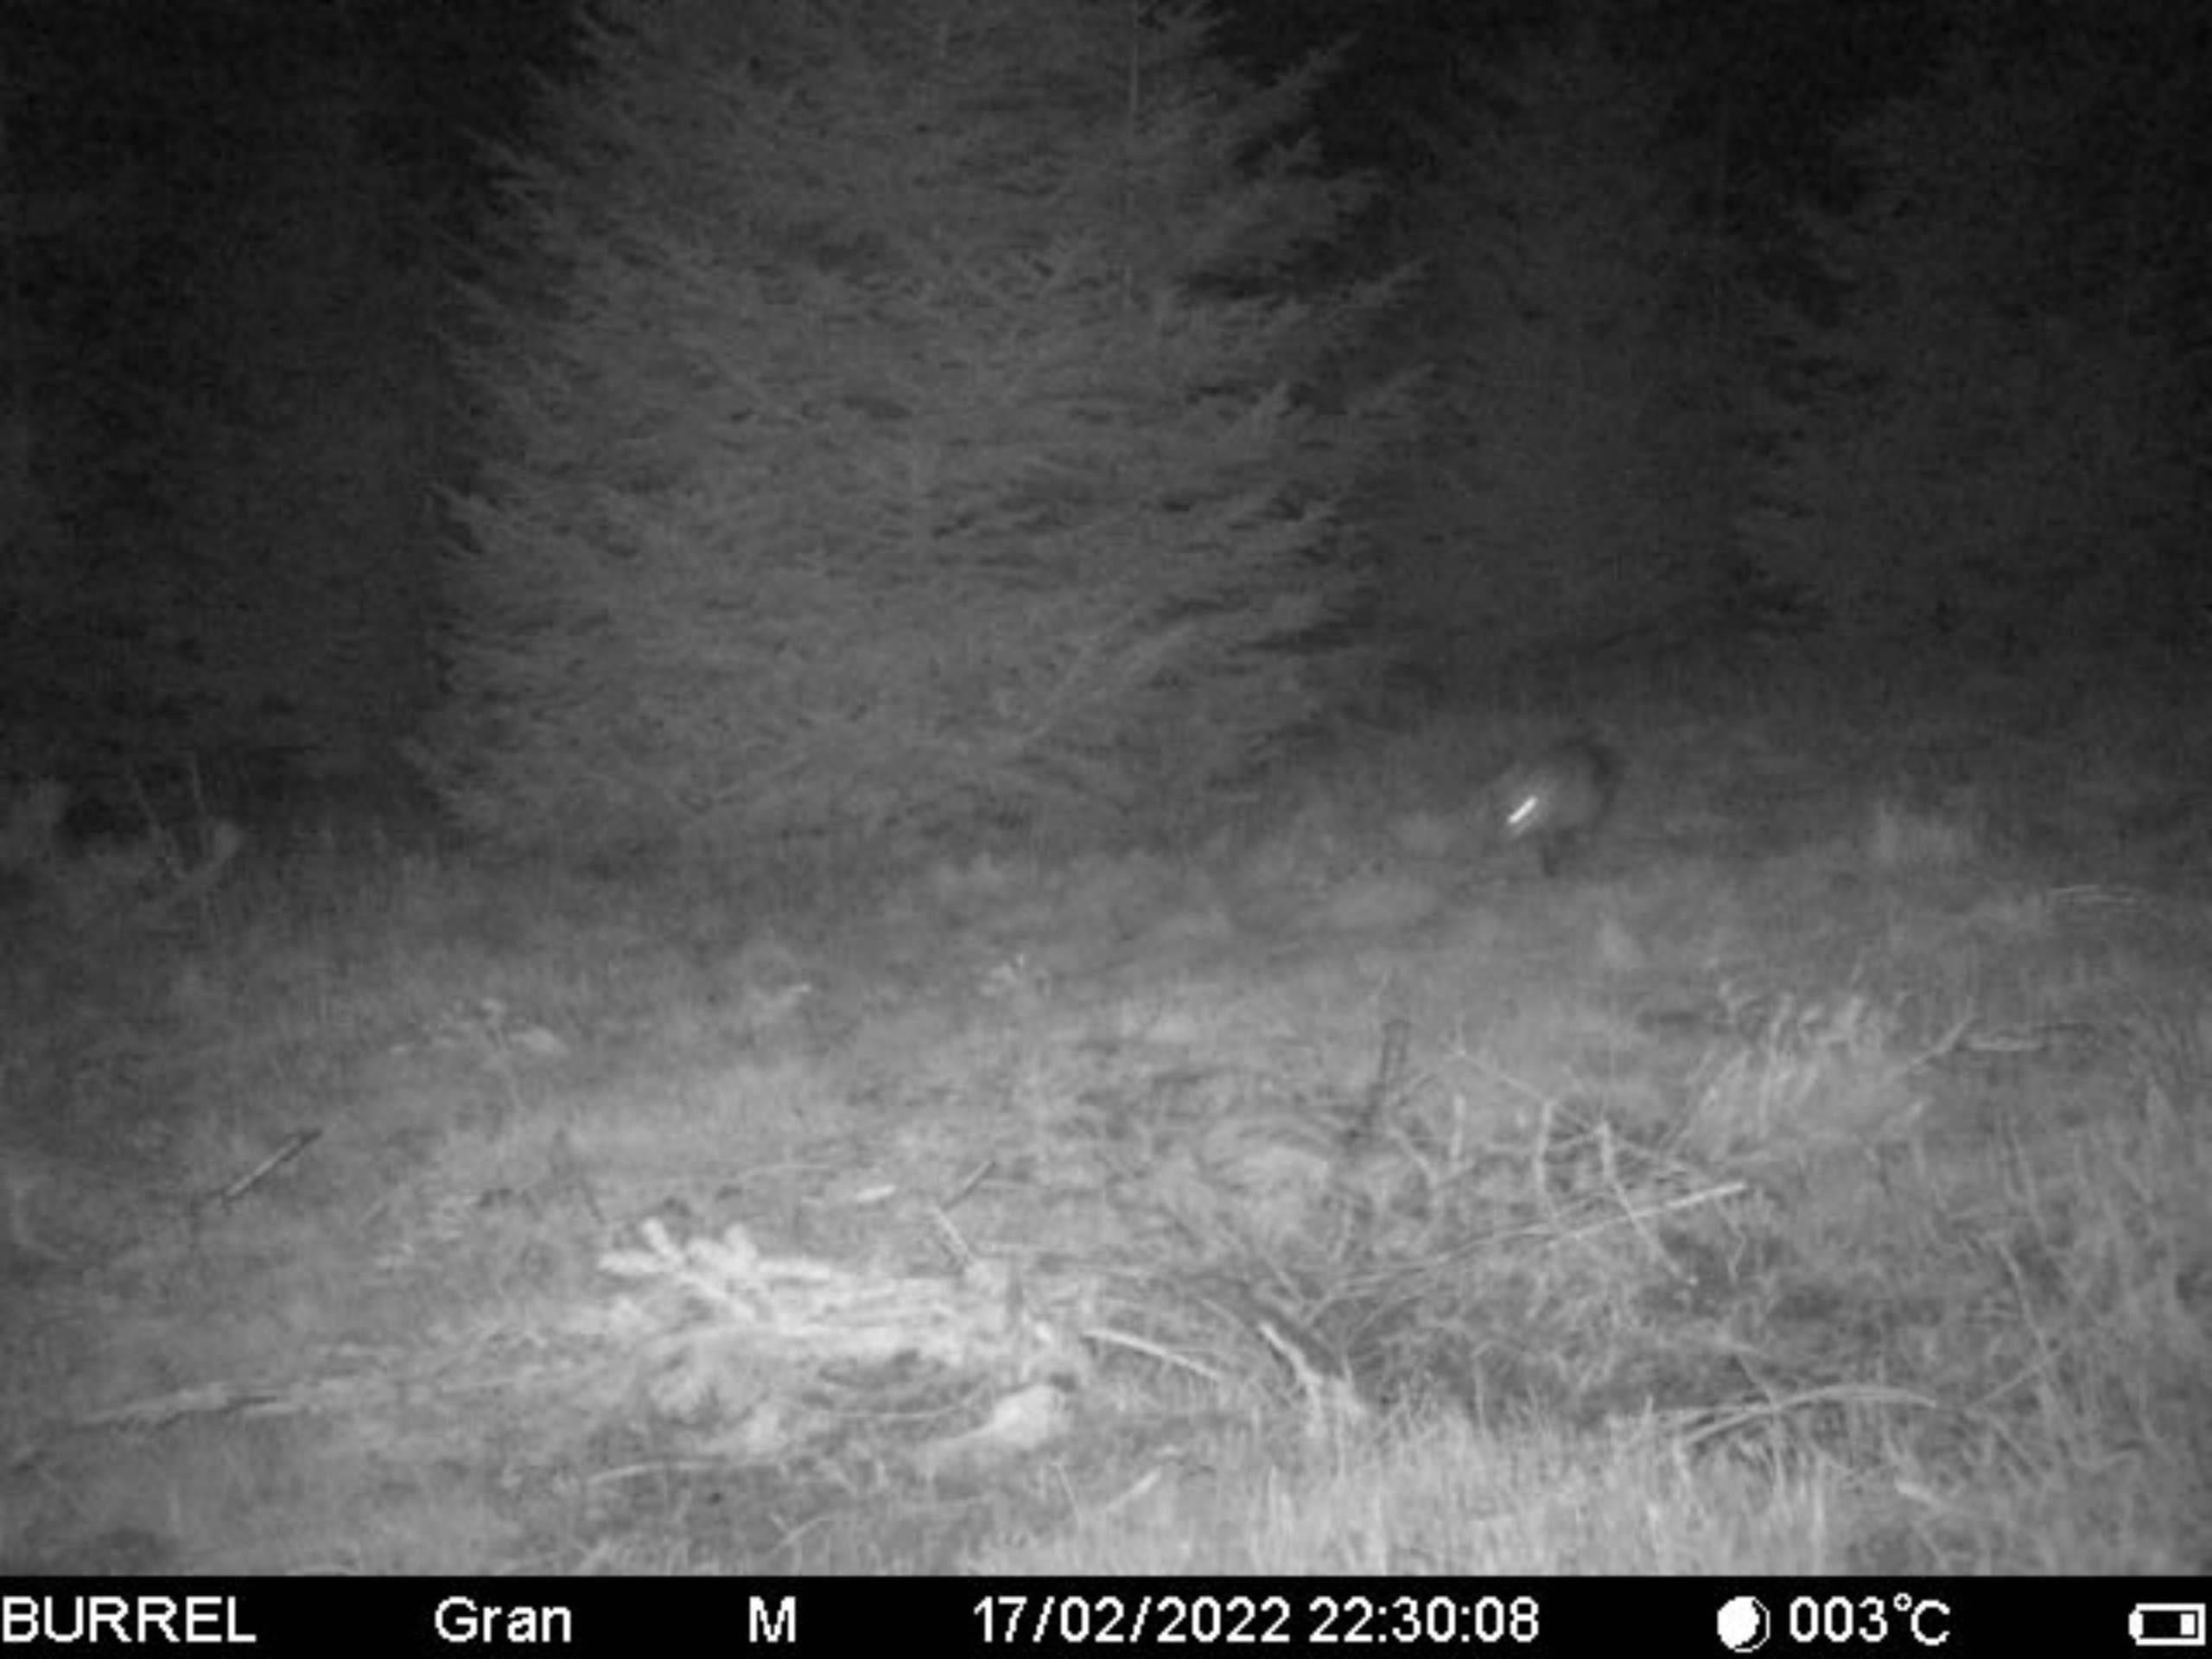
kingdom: Animalia
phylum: Chordata
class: Mammalia
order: Carnivora
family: Canidae
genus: Vulpes
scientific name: Vulpes vulpes
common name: Ræv
